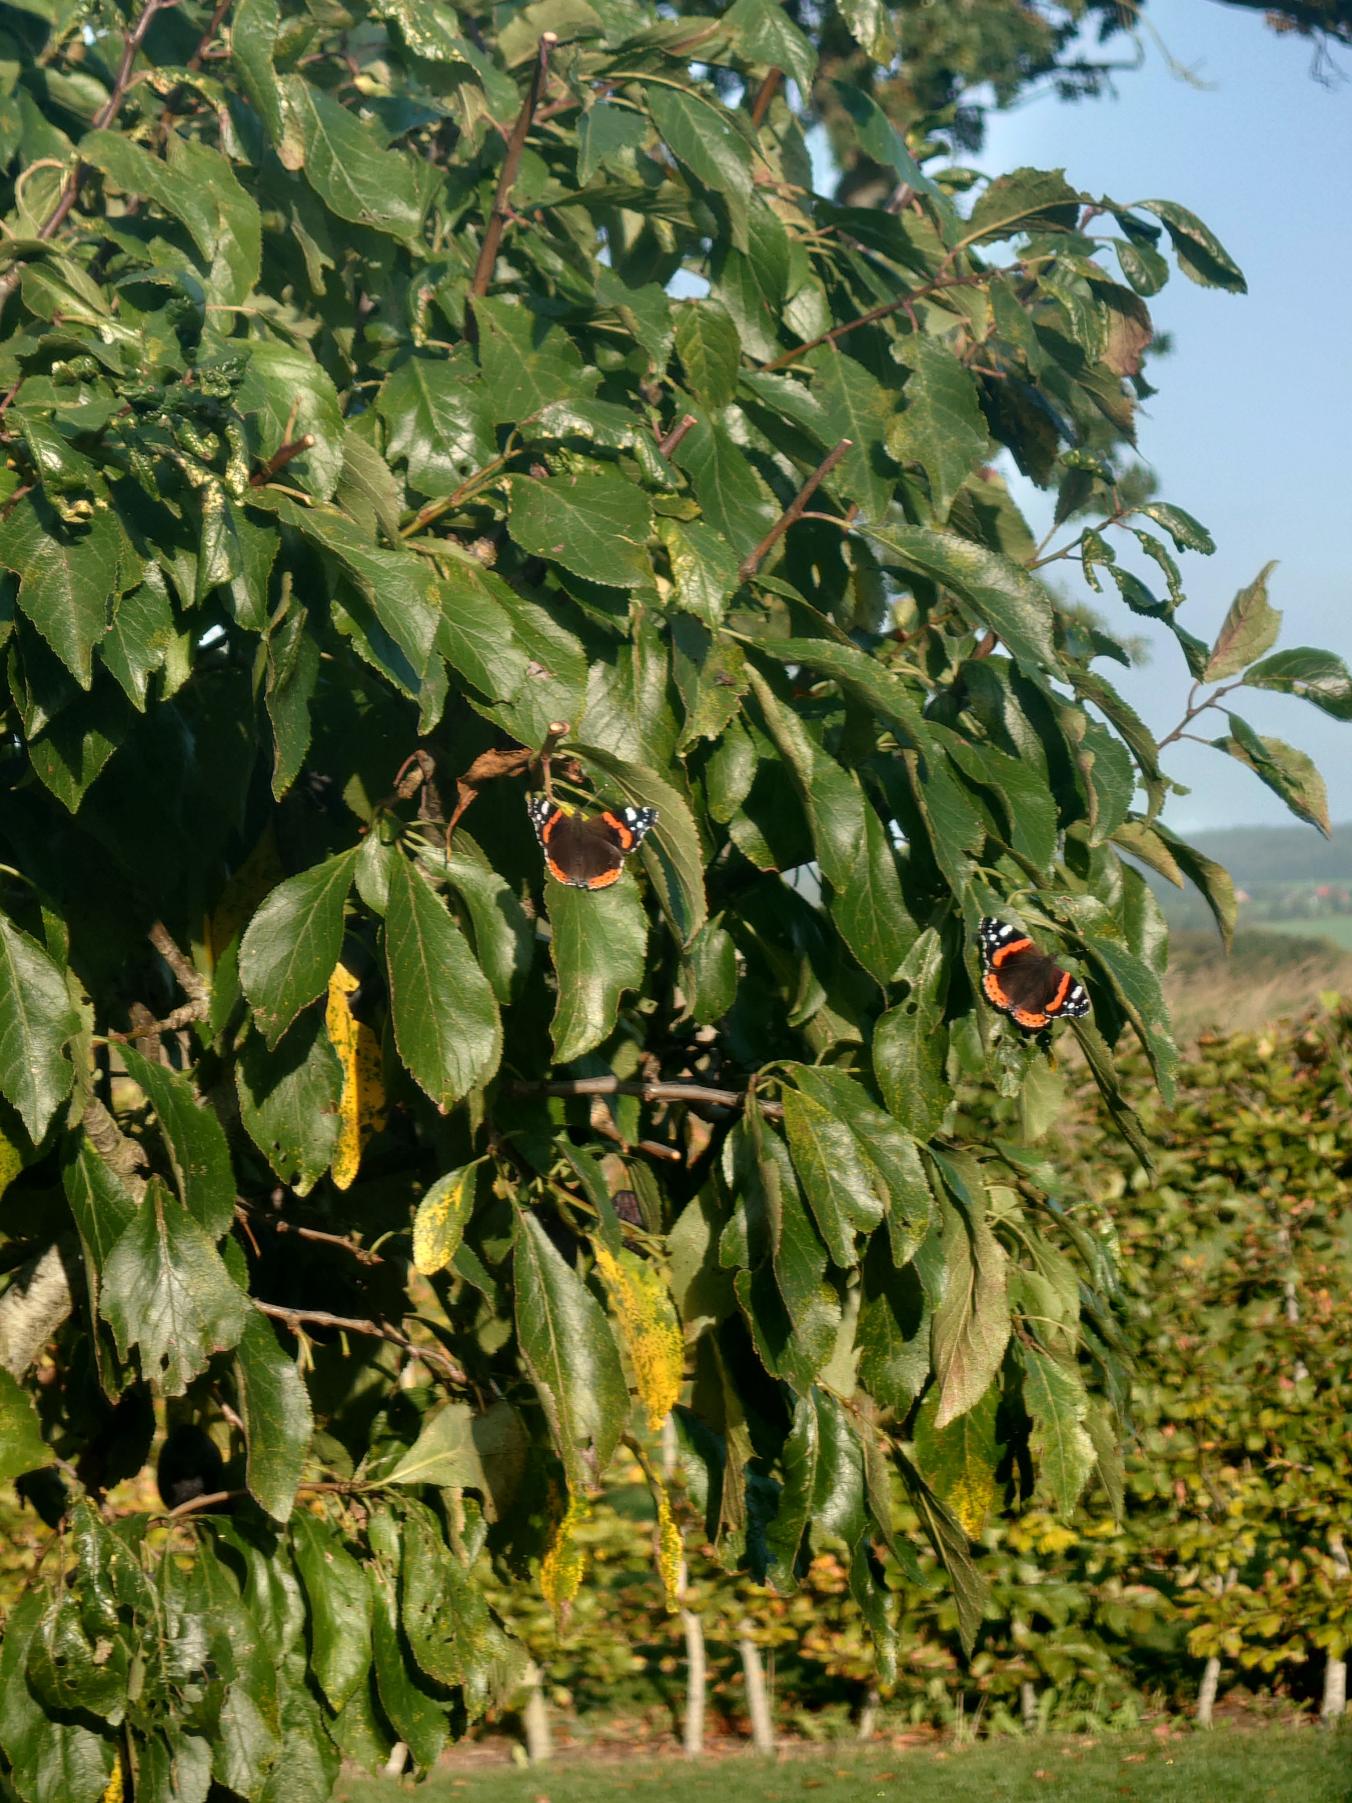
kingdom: Animalia
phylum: Arthropoda
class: Insecta
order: Lepidoptera
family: Nymphalidae
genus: Vanessa
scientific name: Vanessa atalanta
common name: Admiral
